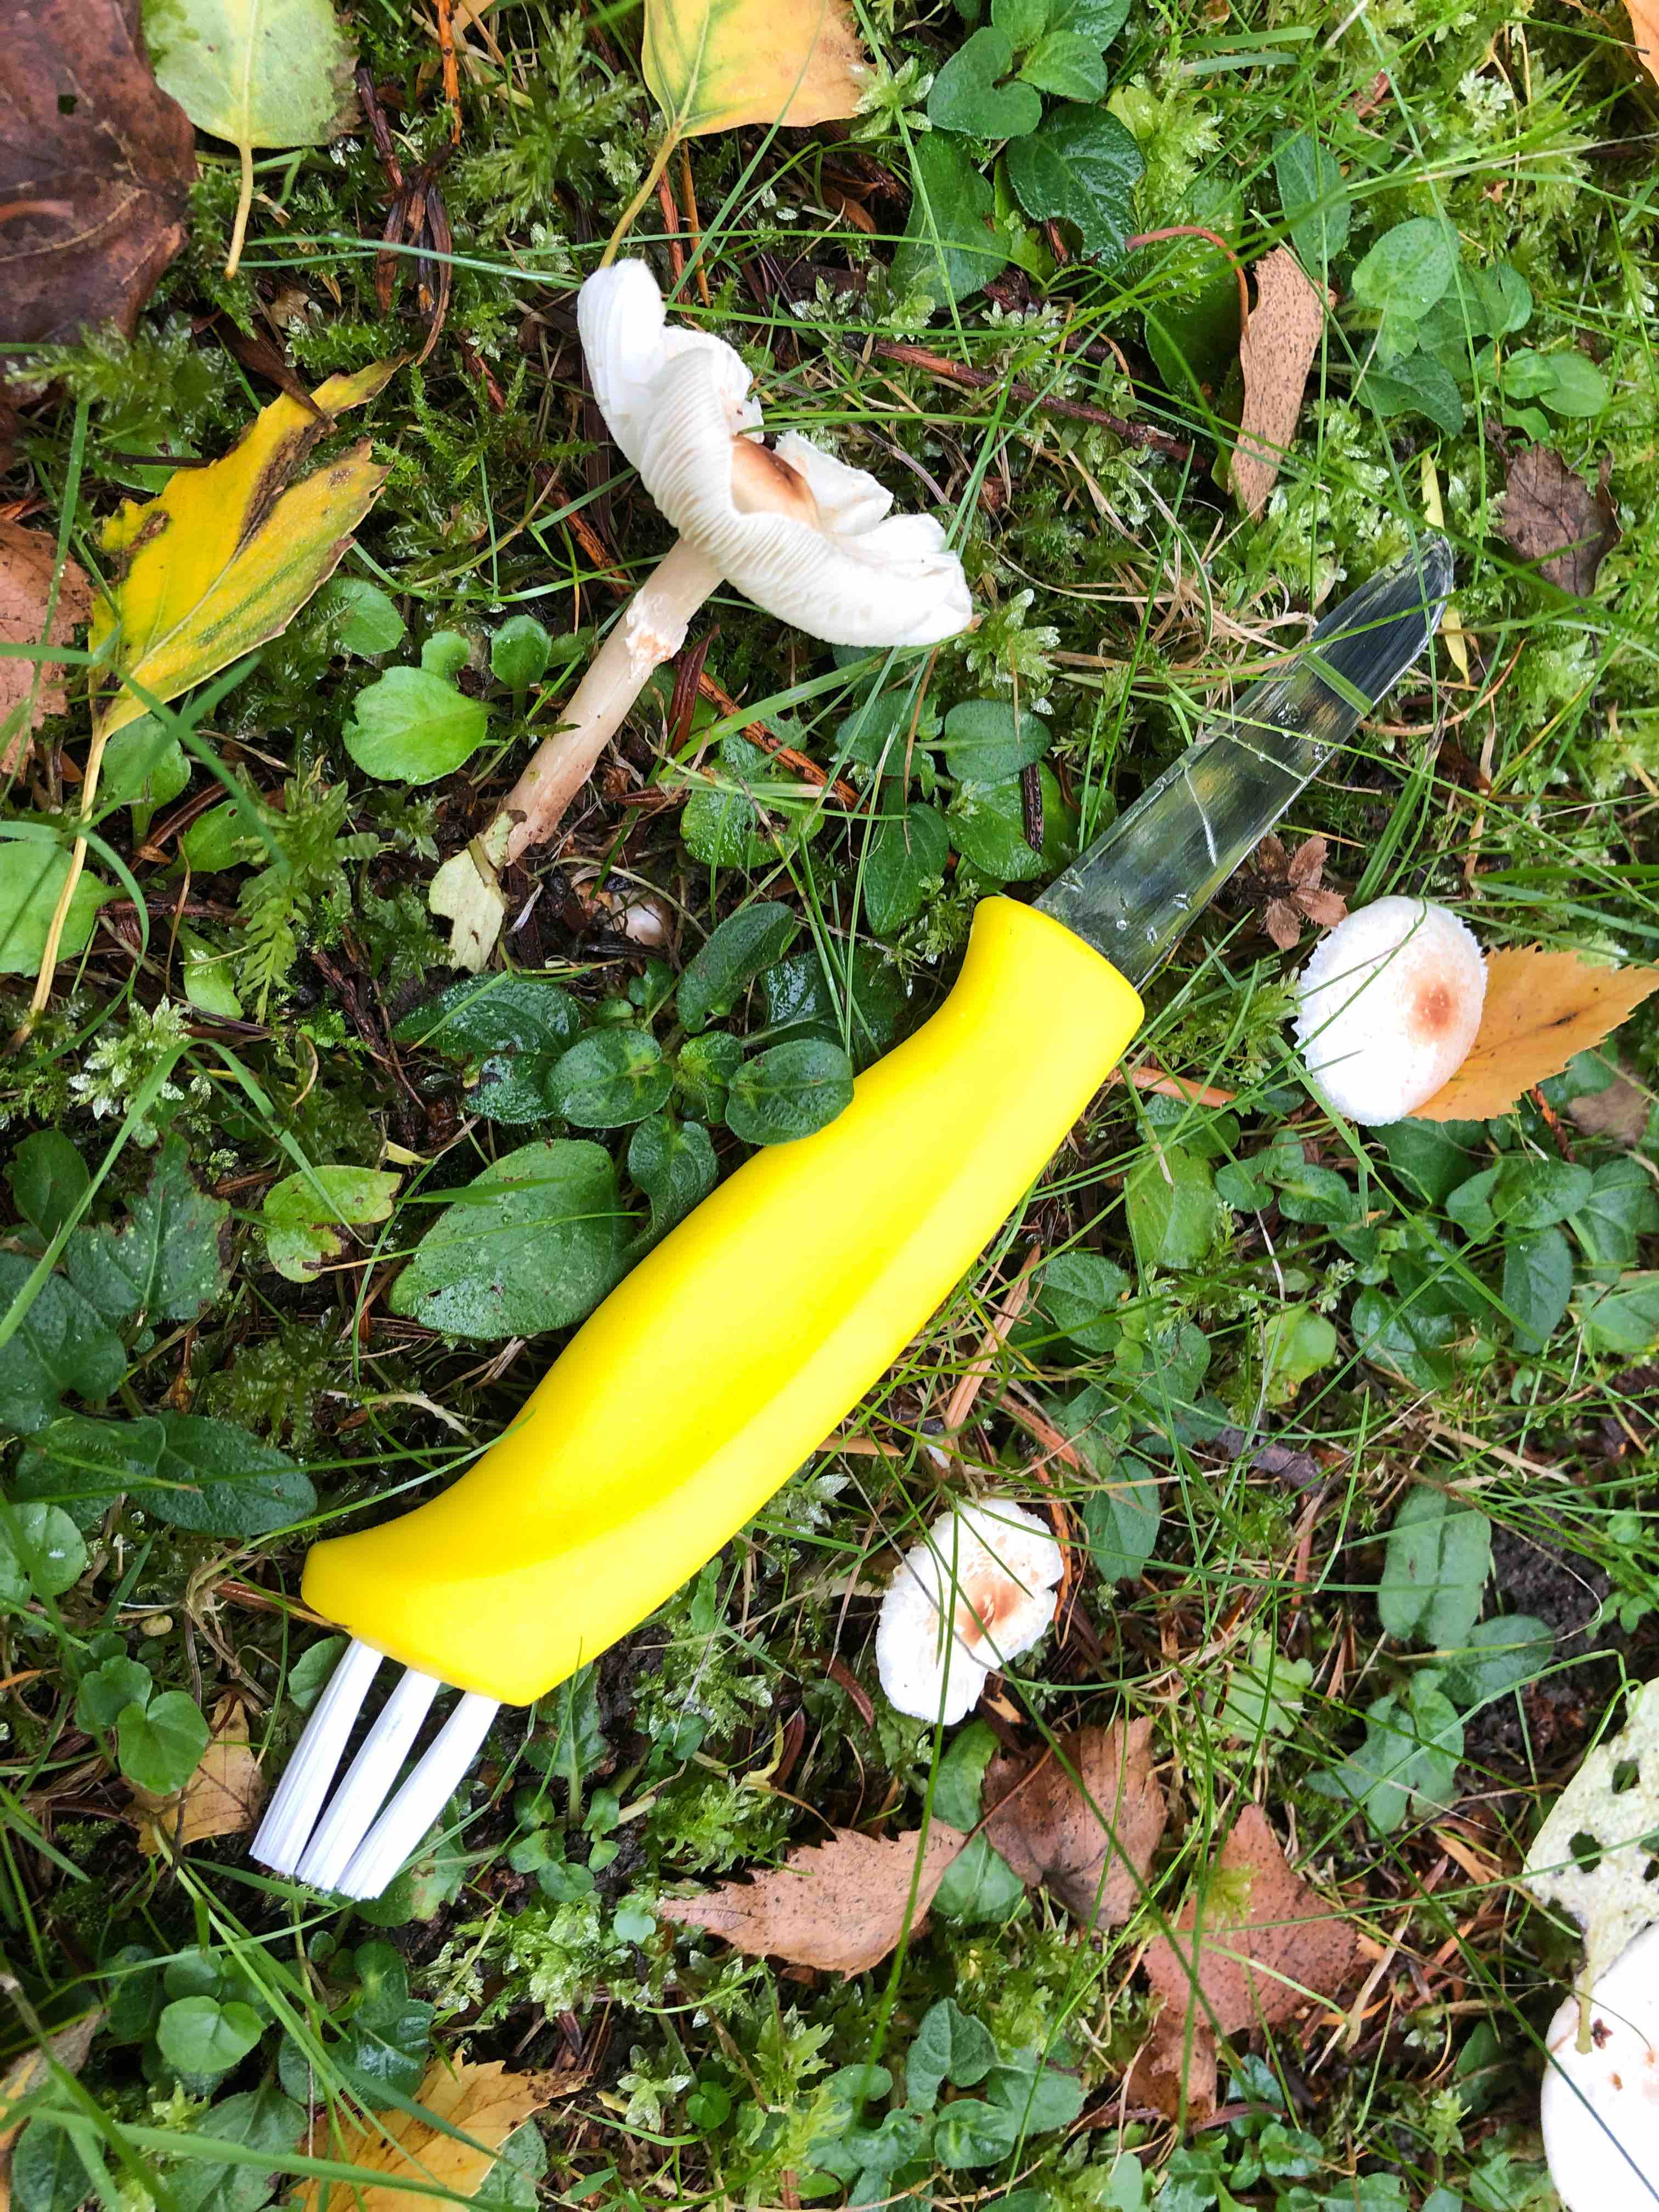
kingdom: Fungi
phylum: Basidiomycota
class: Agaricomycetes
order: Agaricales
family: Physalacriaceae
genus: Hymenopellis
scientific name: Hymenopellis radicata
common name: almindelig pælerodshat
